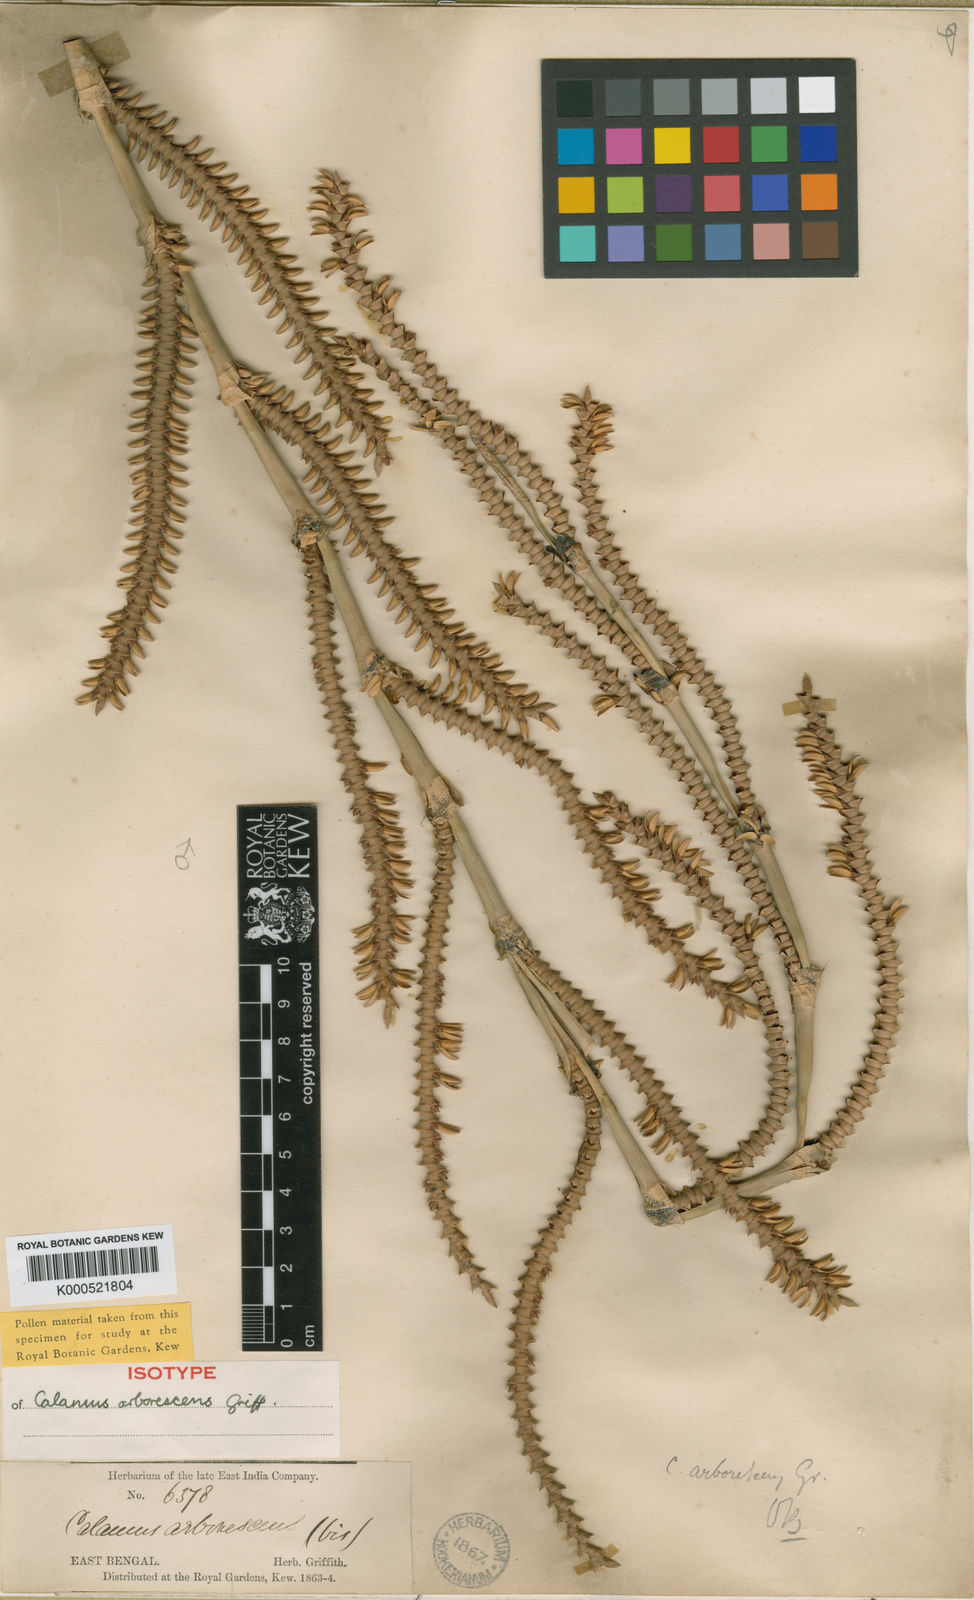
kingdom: Plantae
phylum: Tracheophyta
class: Liliopsida
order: Arecales
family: Arecaceae
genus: Calamus
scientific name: Calamus arborescens
